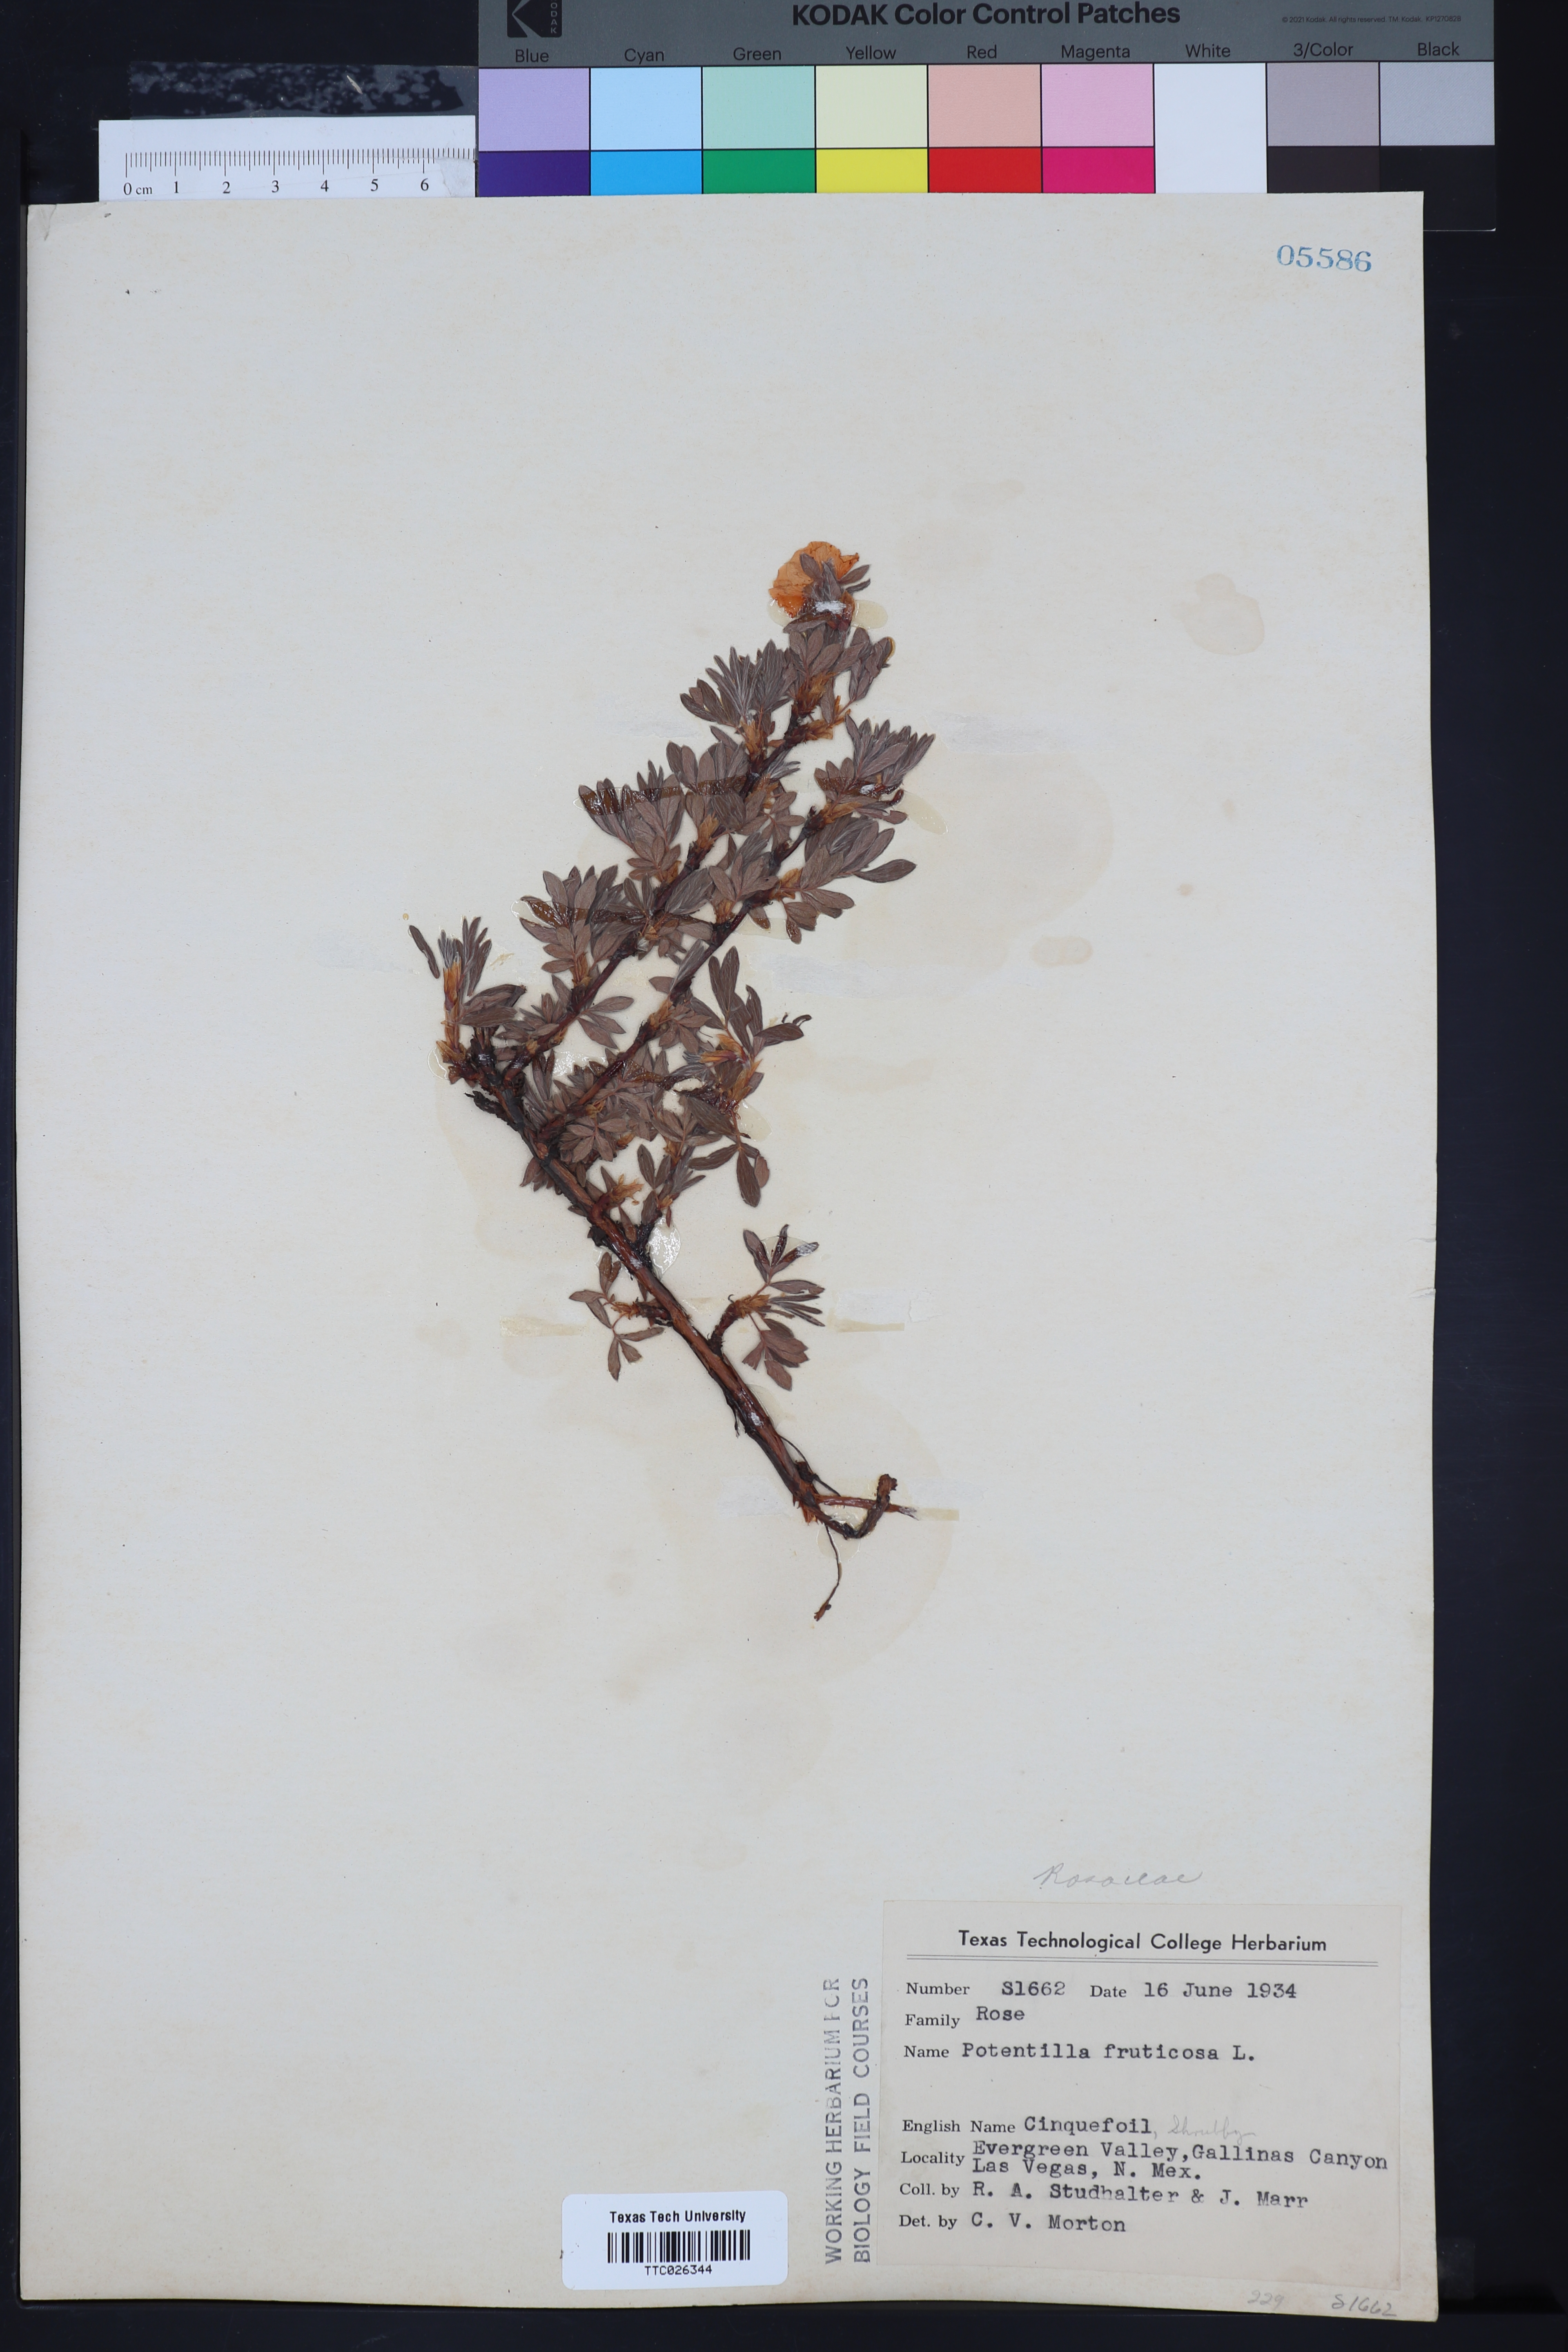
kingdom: Plantae
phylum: Tracheophyta
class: Magnoliopsida
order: Rosales
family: Rosaceae
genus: Dasiphora
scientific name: Dasiphora fruticosa
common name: Shrubby cinquefoil
